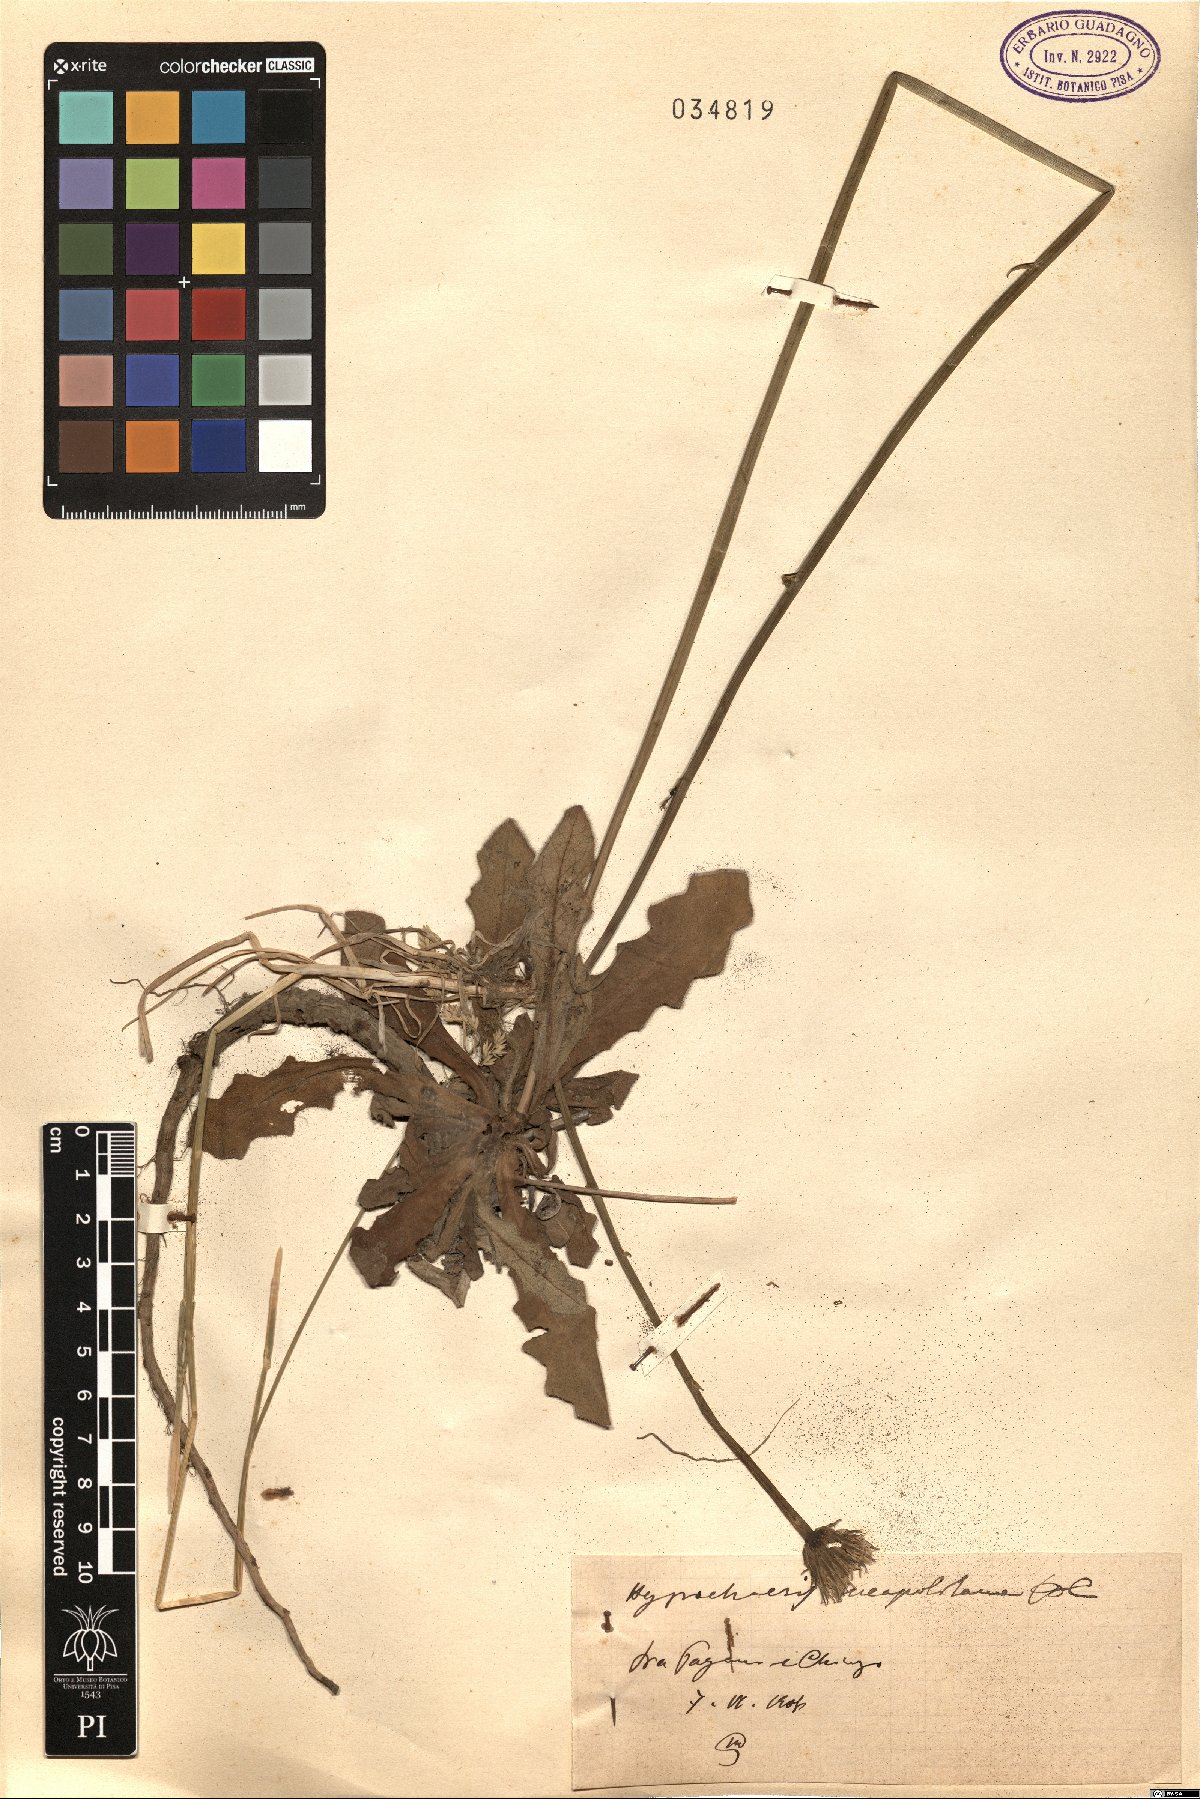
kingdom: Plantae
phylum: Tracheophyta
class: Magnoliopsida
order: Asterales
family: Asteraceae
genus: Hypochaeris
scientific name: Hypochaeris radicata
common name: Flatweed
